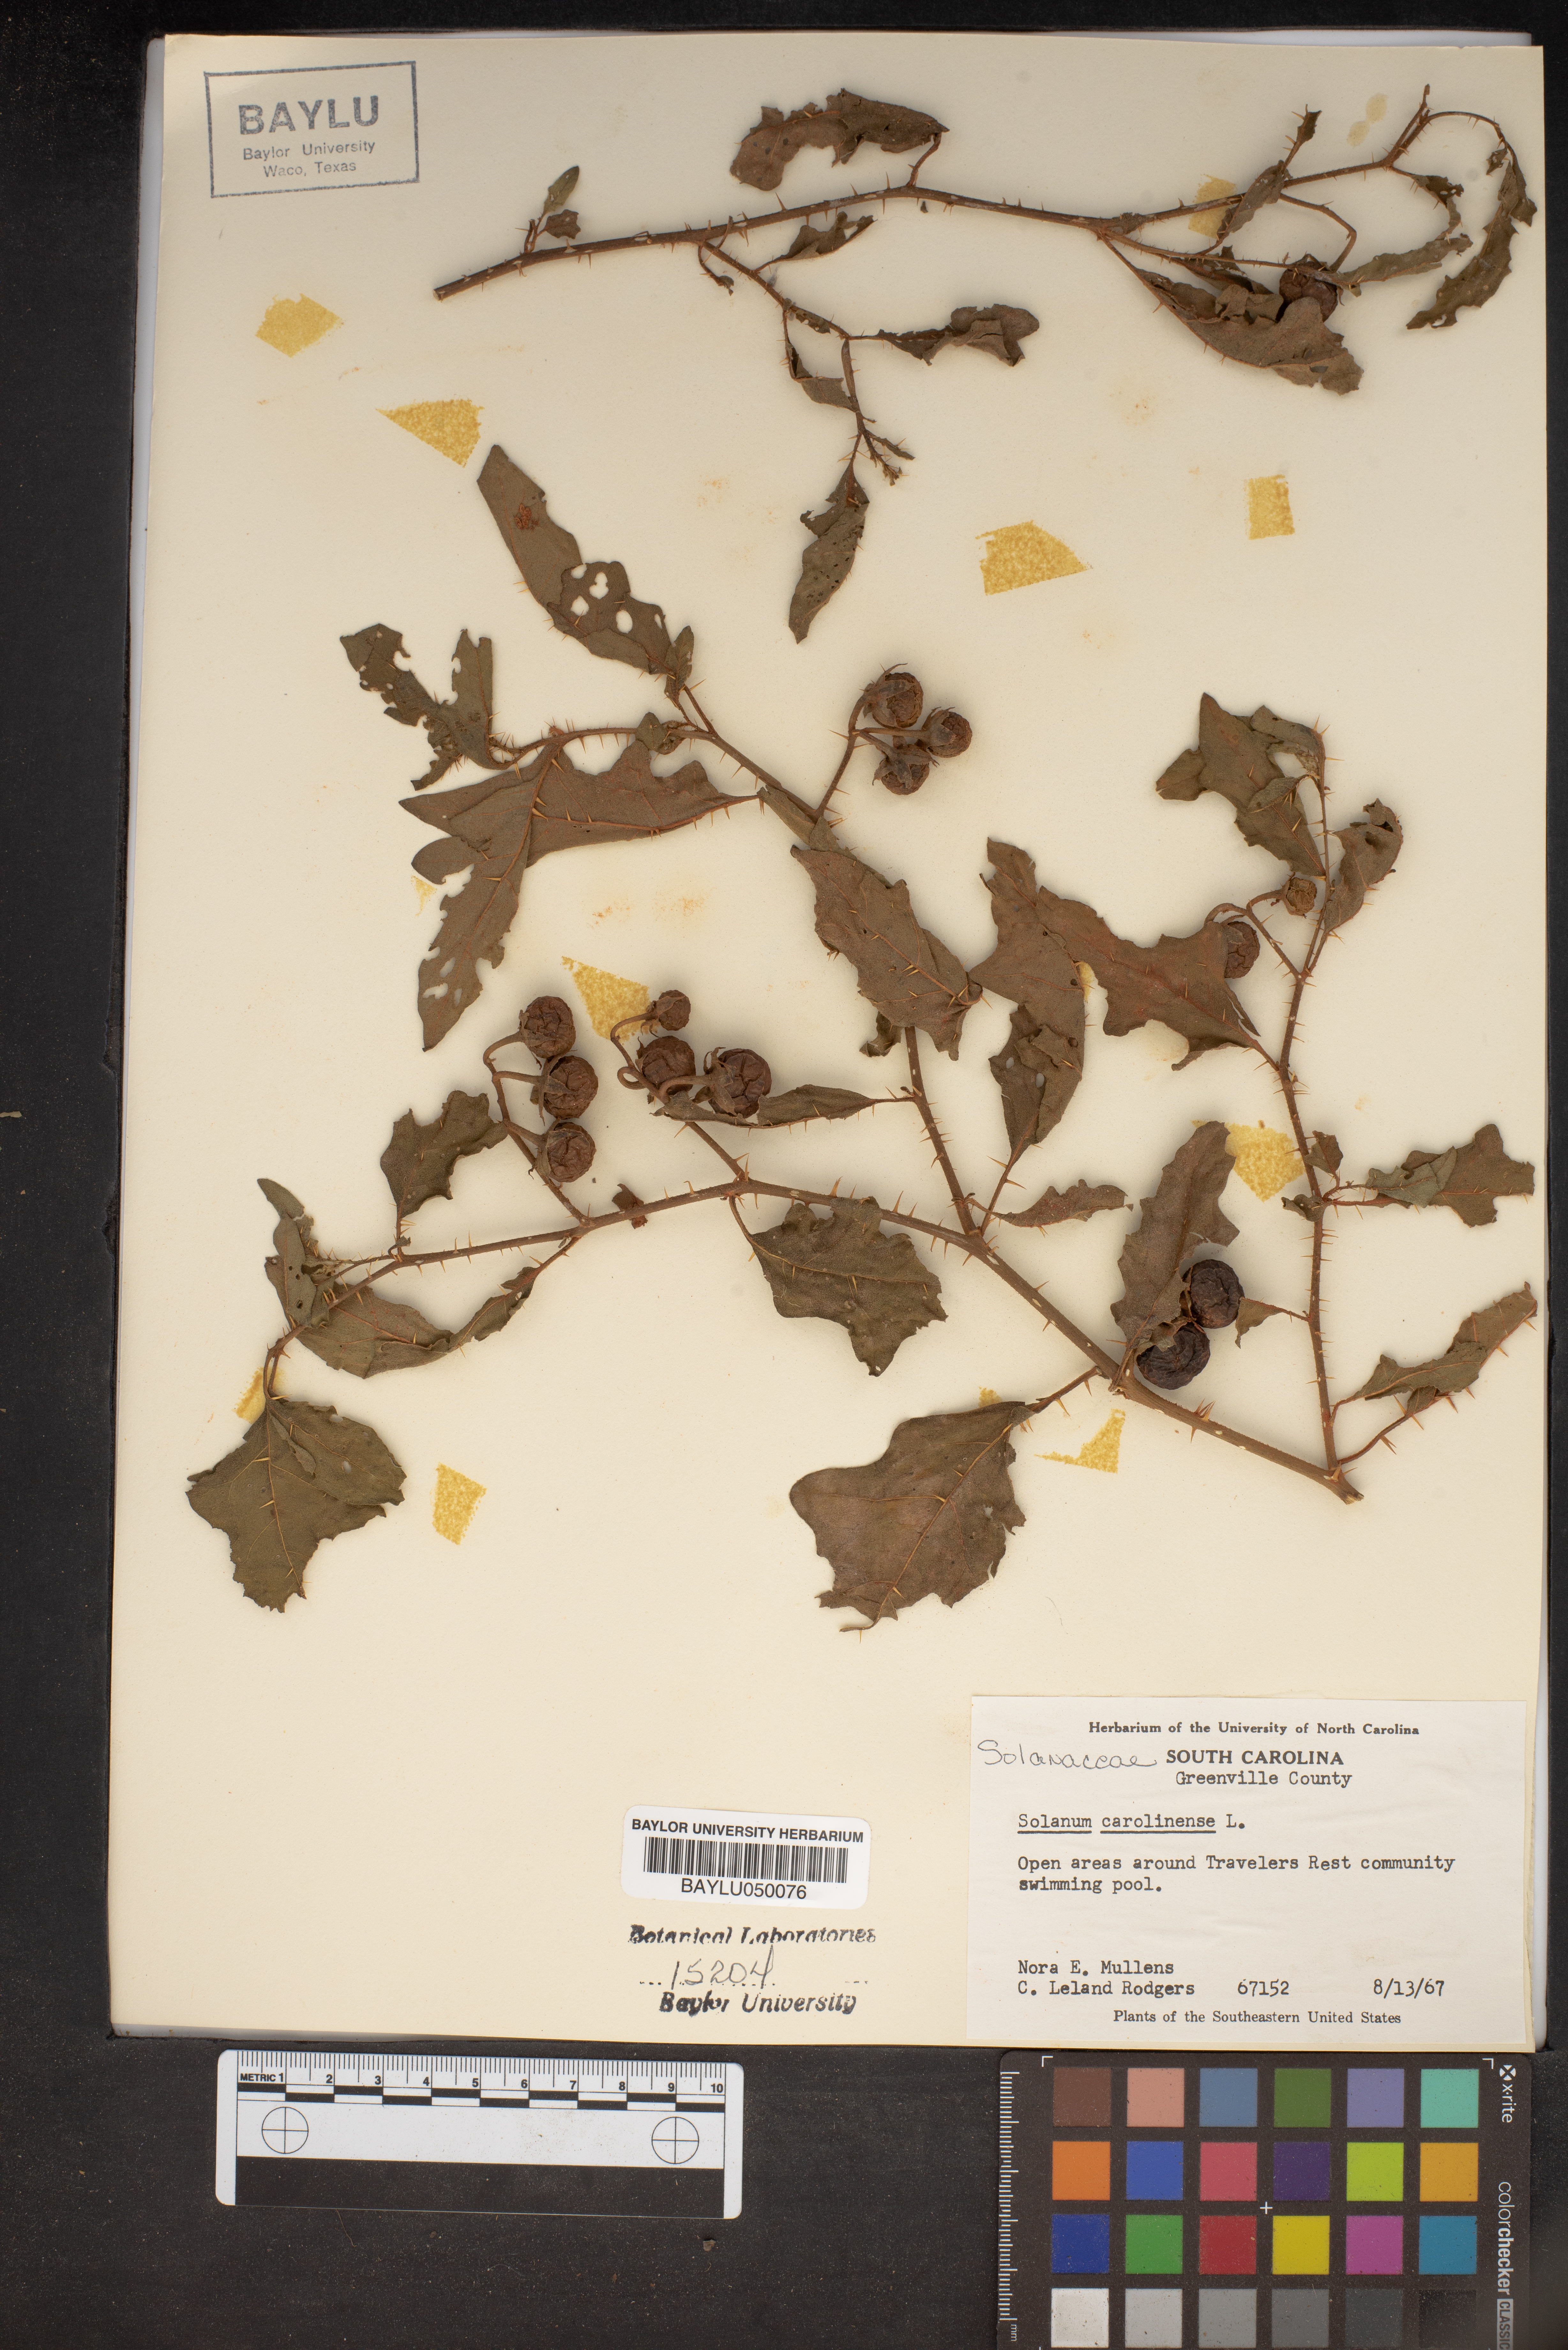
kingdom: Plantae
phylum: Tracheophyta
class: Magnoliopsida
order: Solanales
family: Solanaceae
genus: Solanum
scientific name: Solanum carolinense
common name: Horse-nettle
